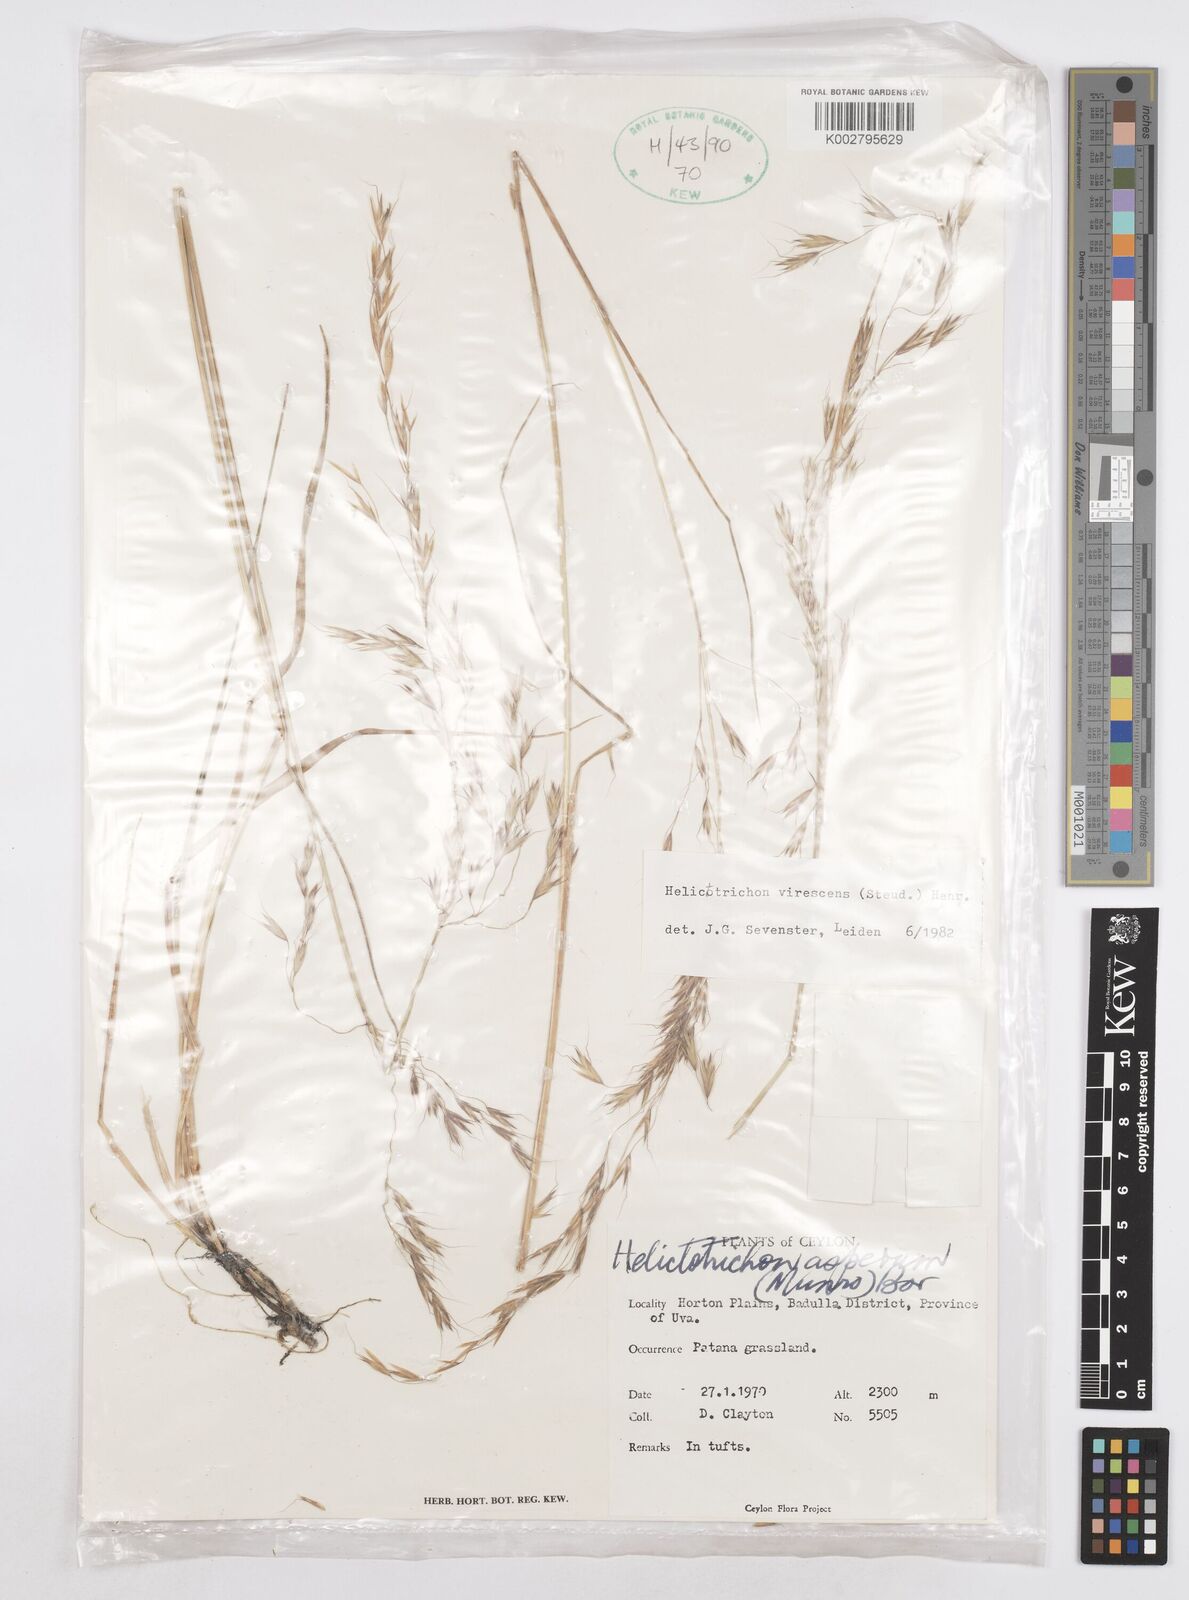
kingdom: Plantae
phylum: Tracheophyta
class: Liliopsida
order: Poales
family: Poaceae
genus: Trisetopsis
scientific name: Trisetopsis virescens
